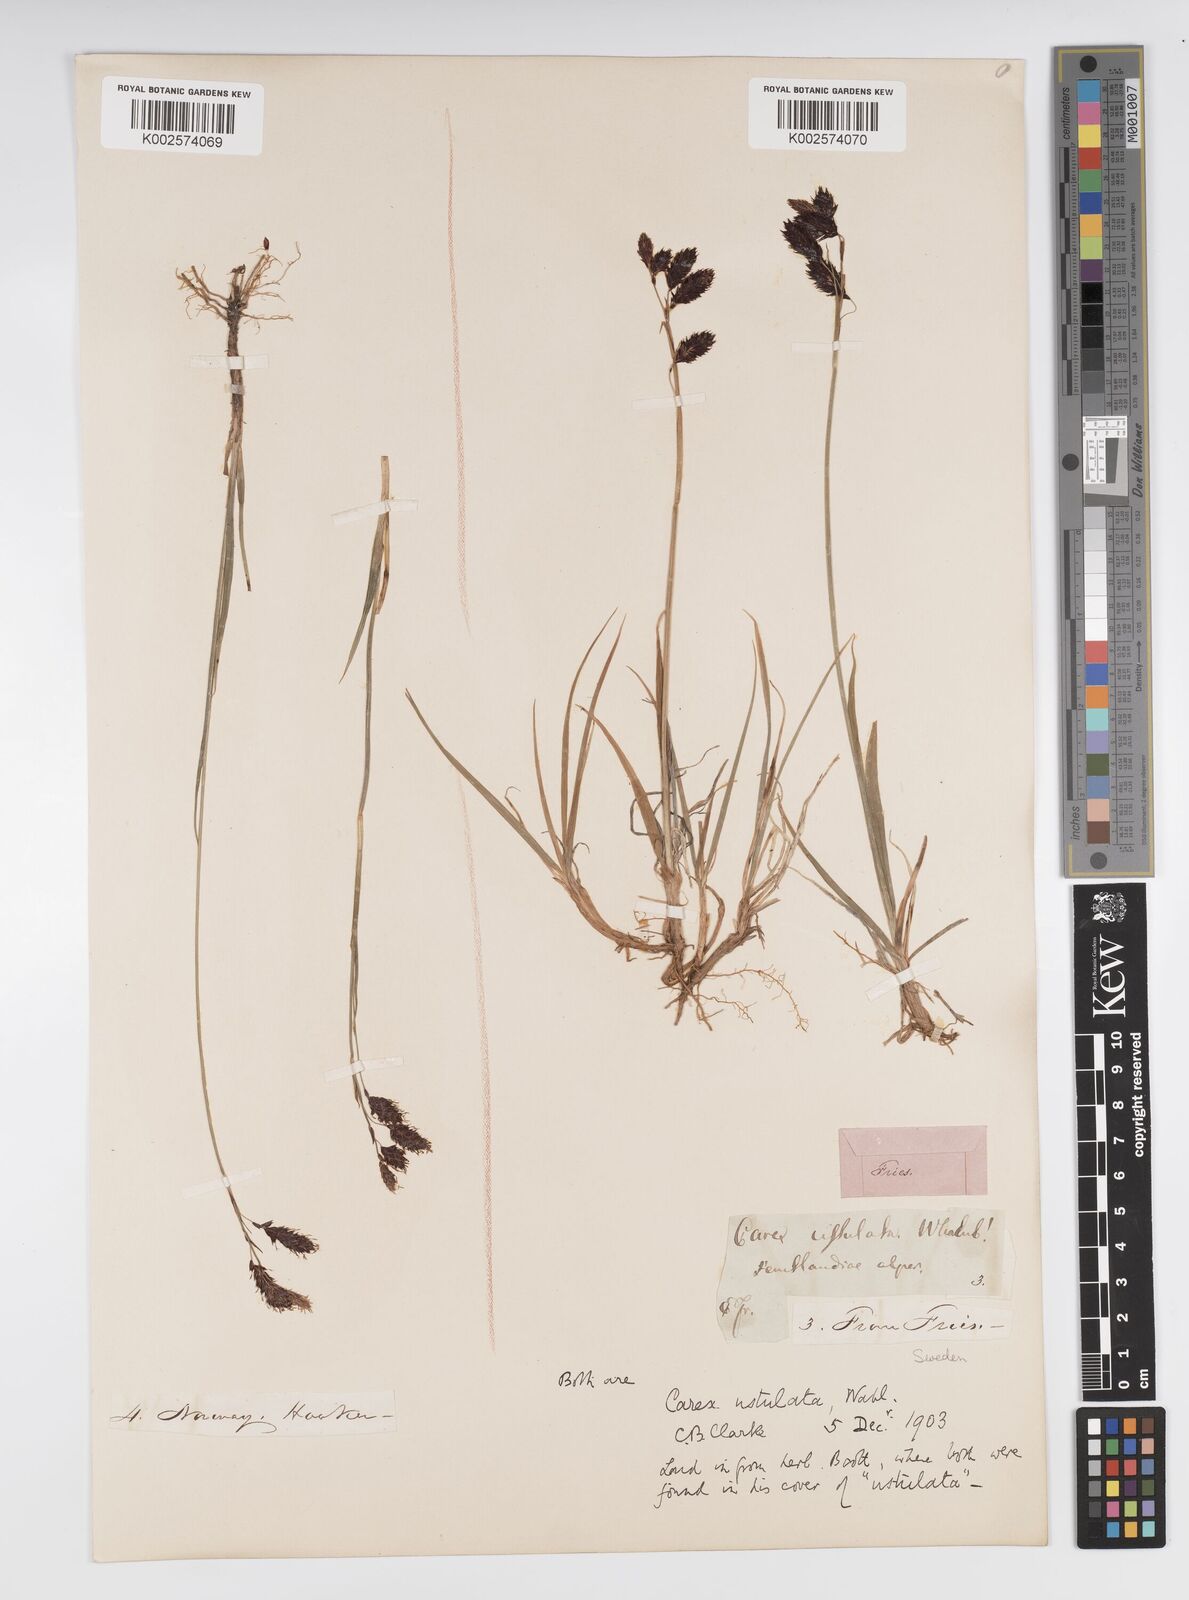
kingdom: Plantae
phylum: Tracheophyta
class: Liliopsida
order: Poales
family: Cyperaceae
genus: Carex
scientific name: Carex atrofusca
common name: Scorched alpine-sedge
